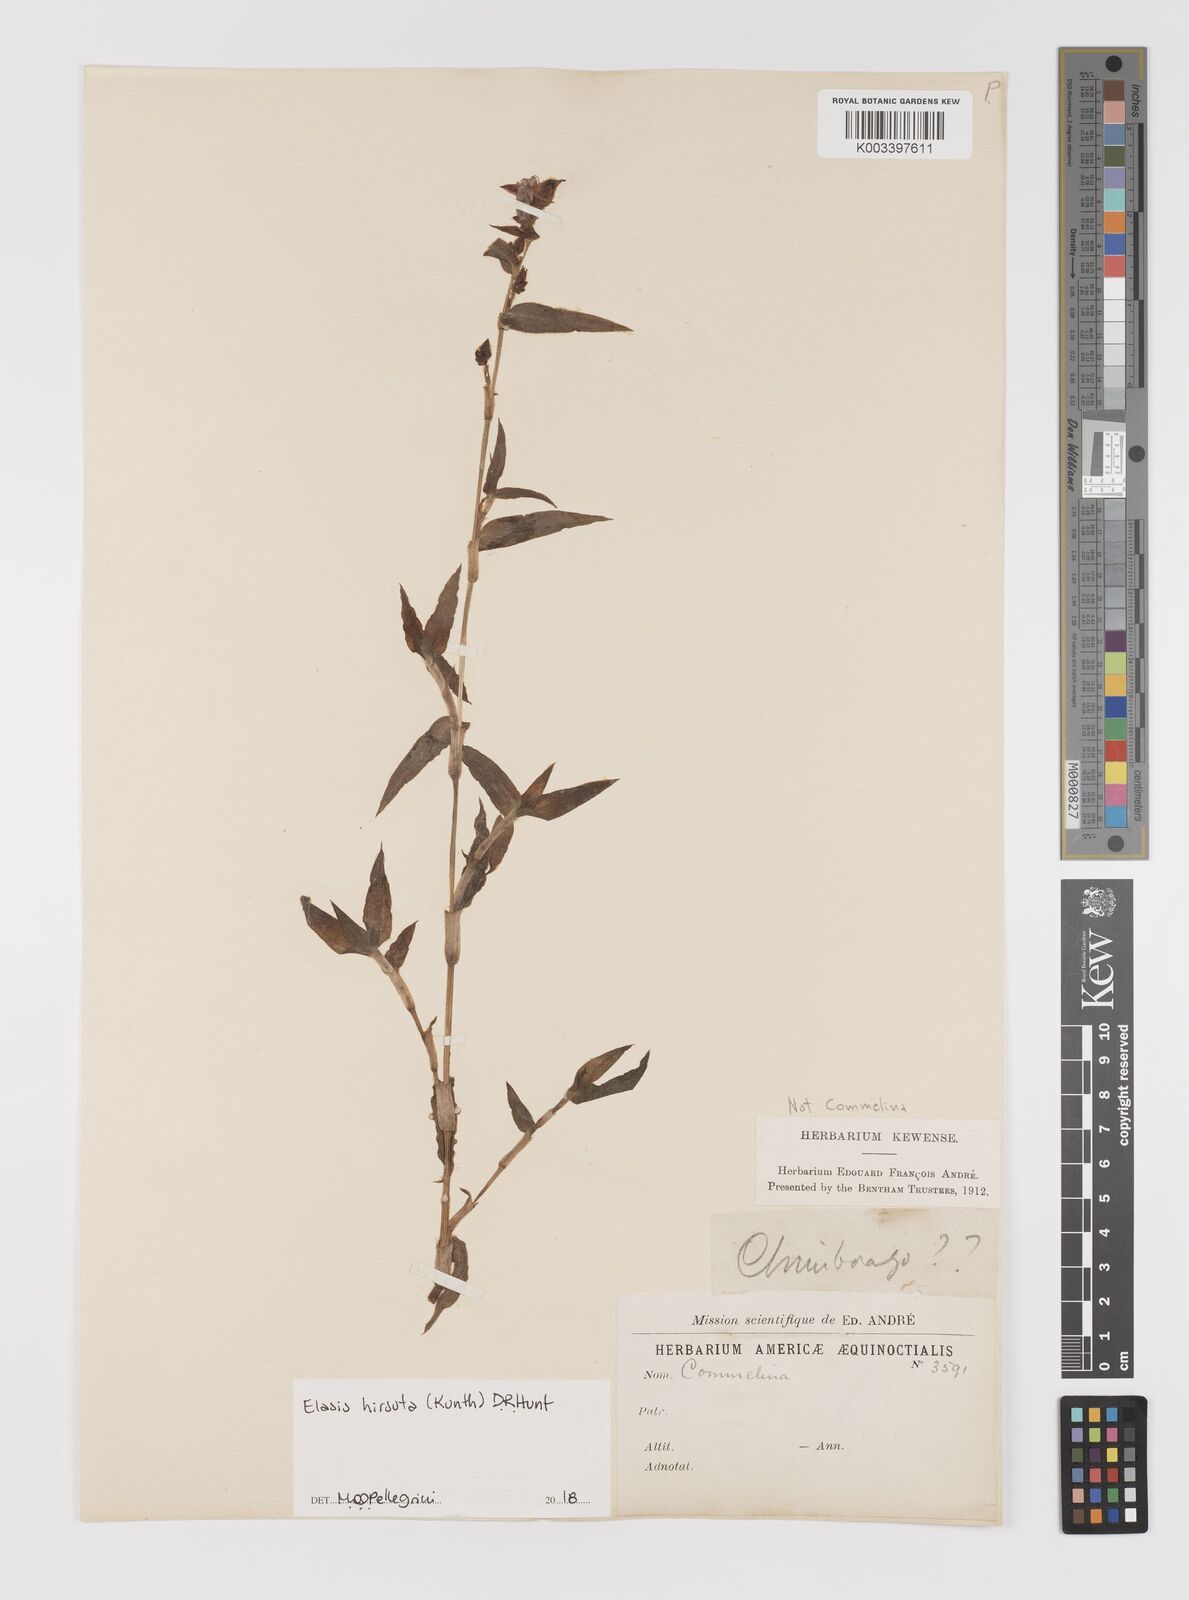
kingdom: Plantae
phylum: Tracheophyta
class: Liliopsida
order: Commelinales
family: Commelinaceae
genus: Elasis
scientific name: Elasis hirsuta
